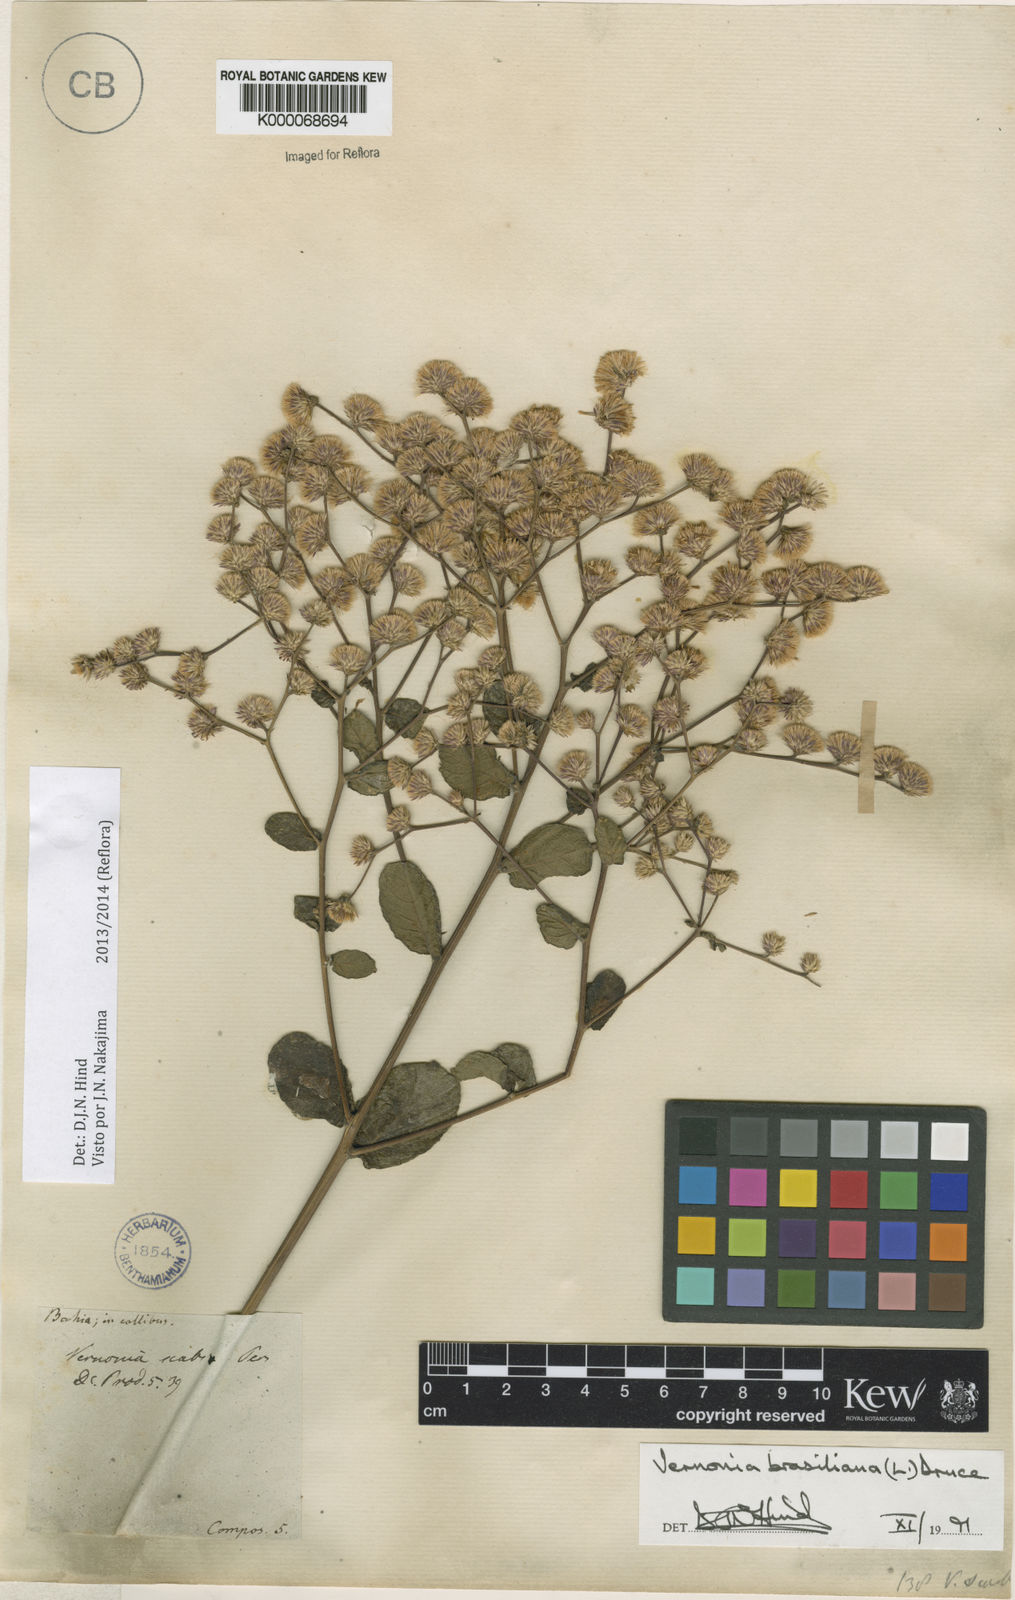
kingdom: Plantae
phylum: Tracheophyta
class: Magnoliopsida
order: Asterales
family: Asteraceae
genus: Vernonanthura
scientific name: Vernonanthura brasiliana
